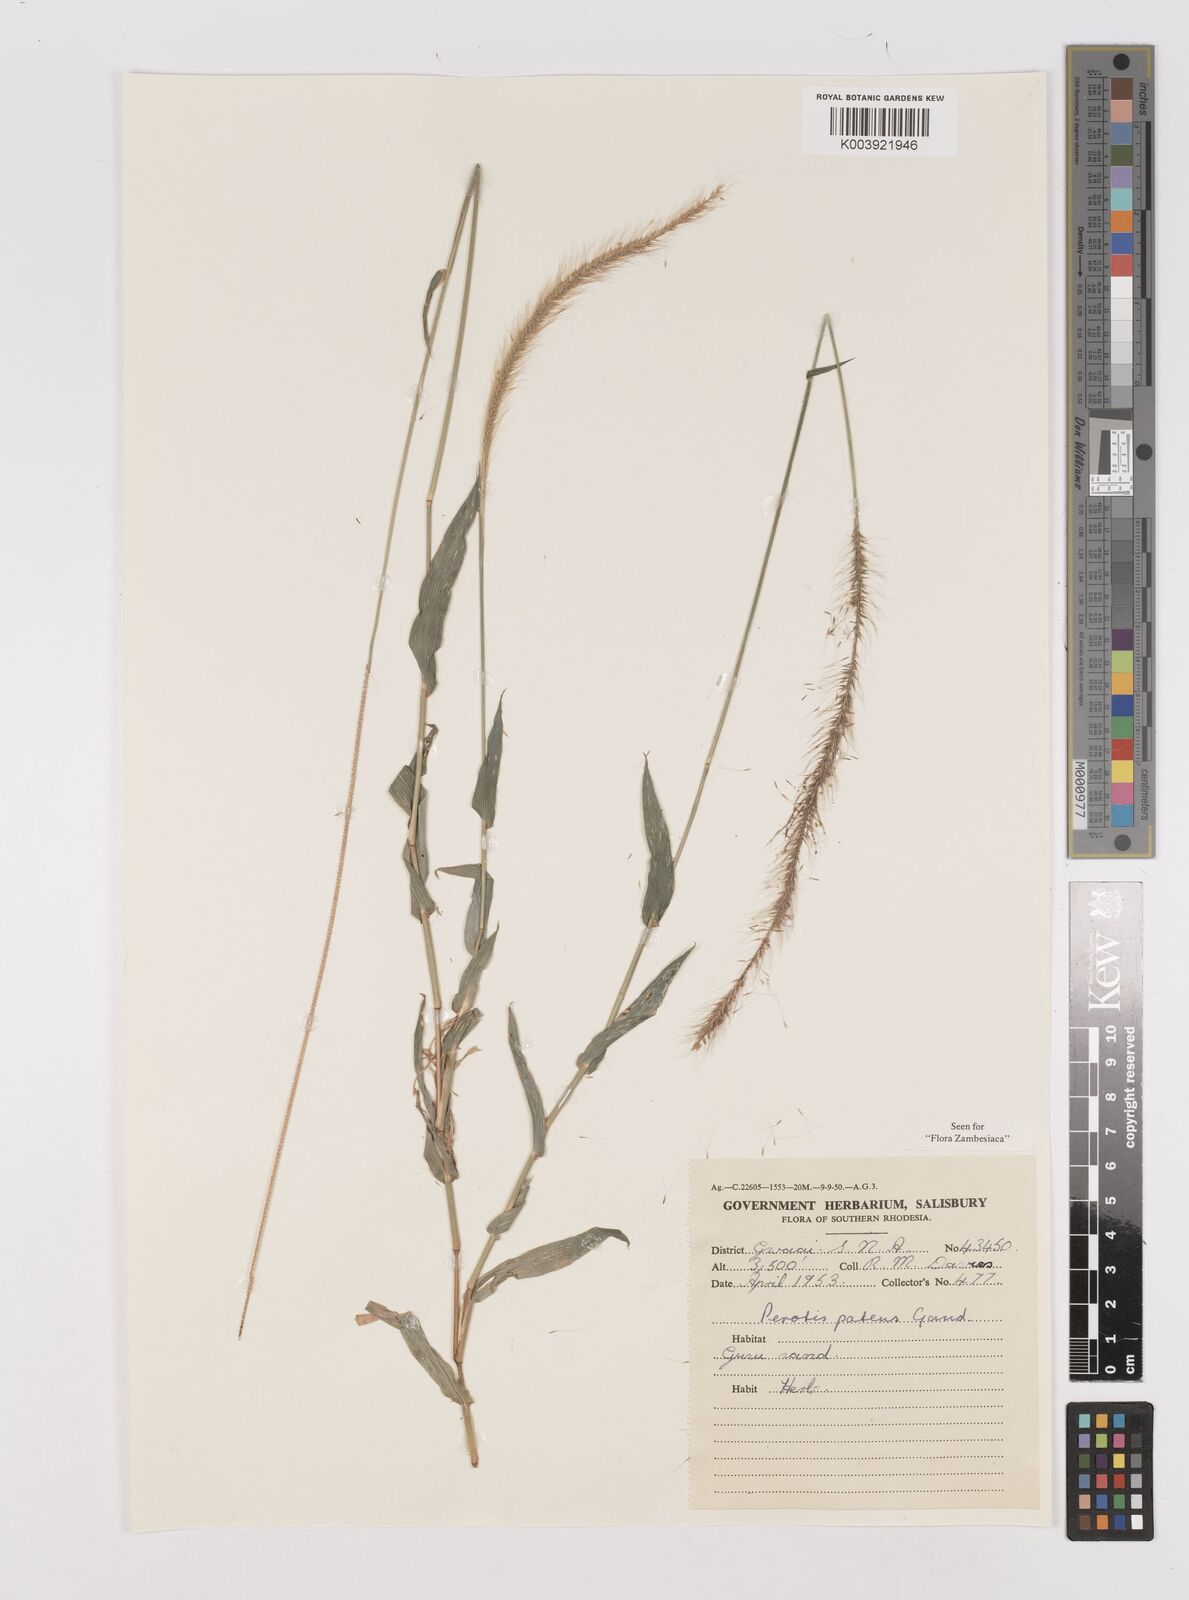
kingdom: Plantae
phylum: Tracheophyta
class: Liliopsida
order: Poales
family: Poaceae
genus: Perotis
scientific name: Perotis patens
